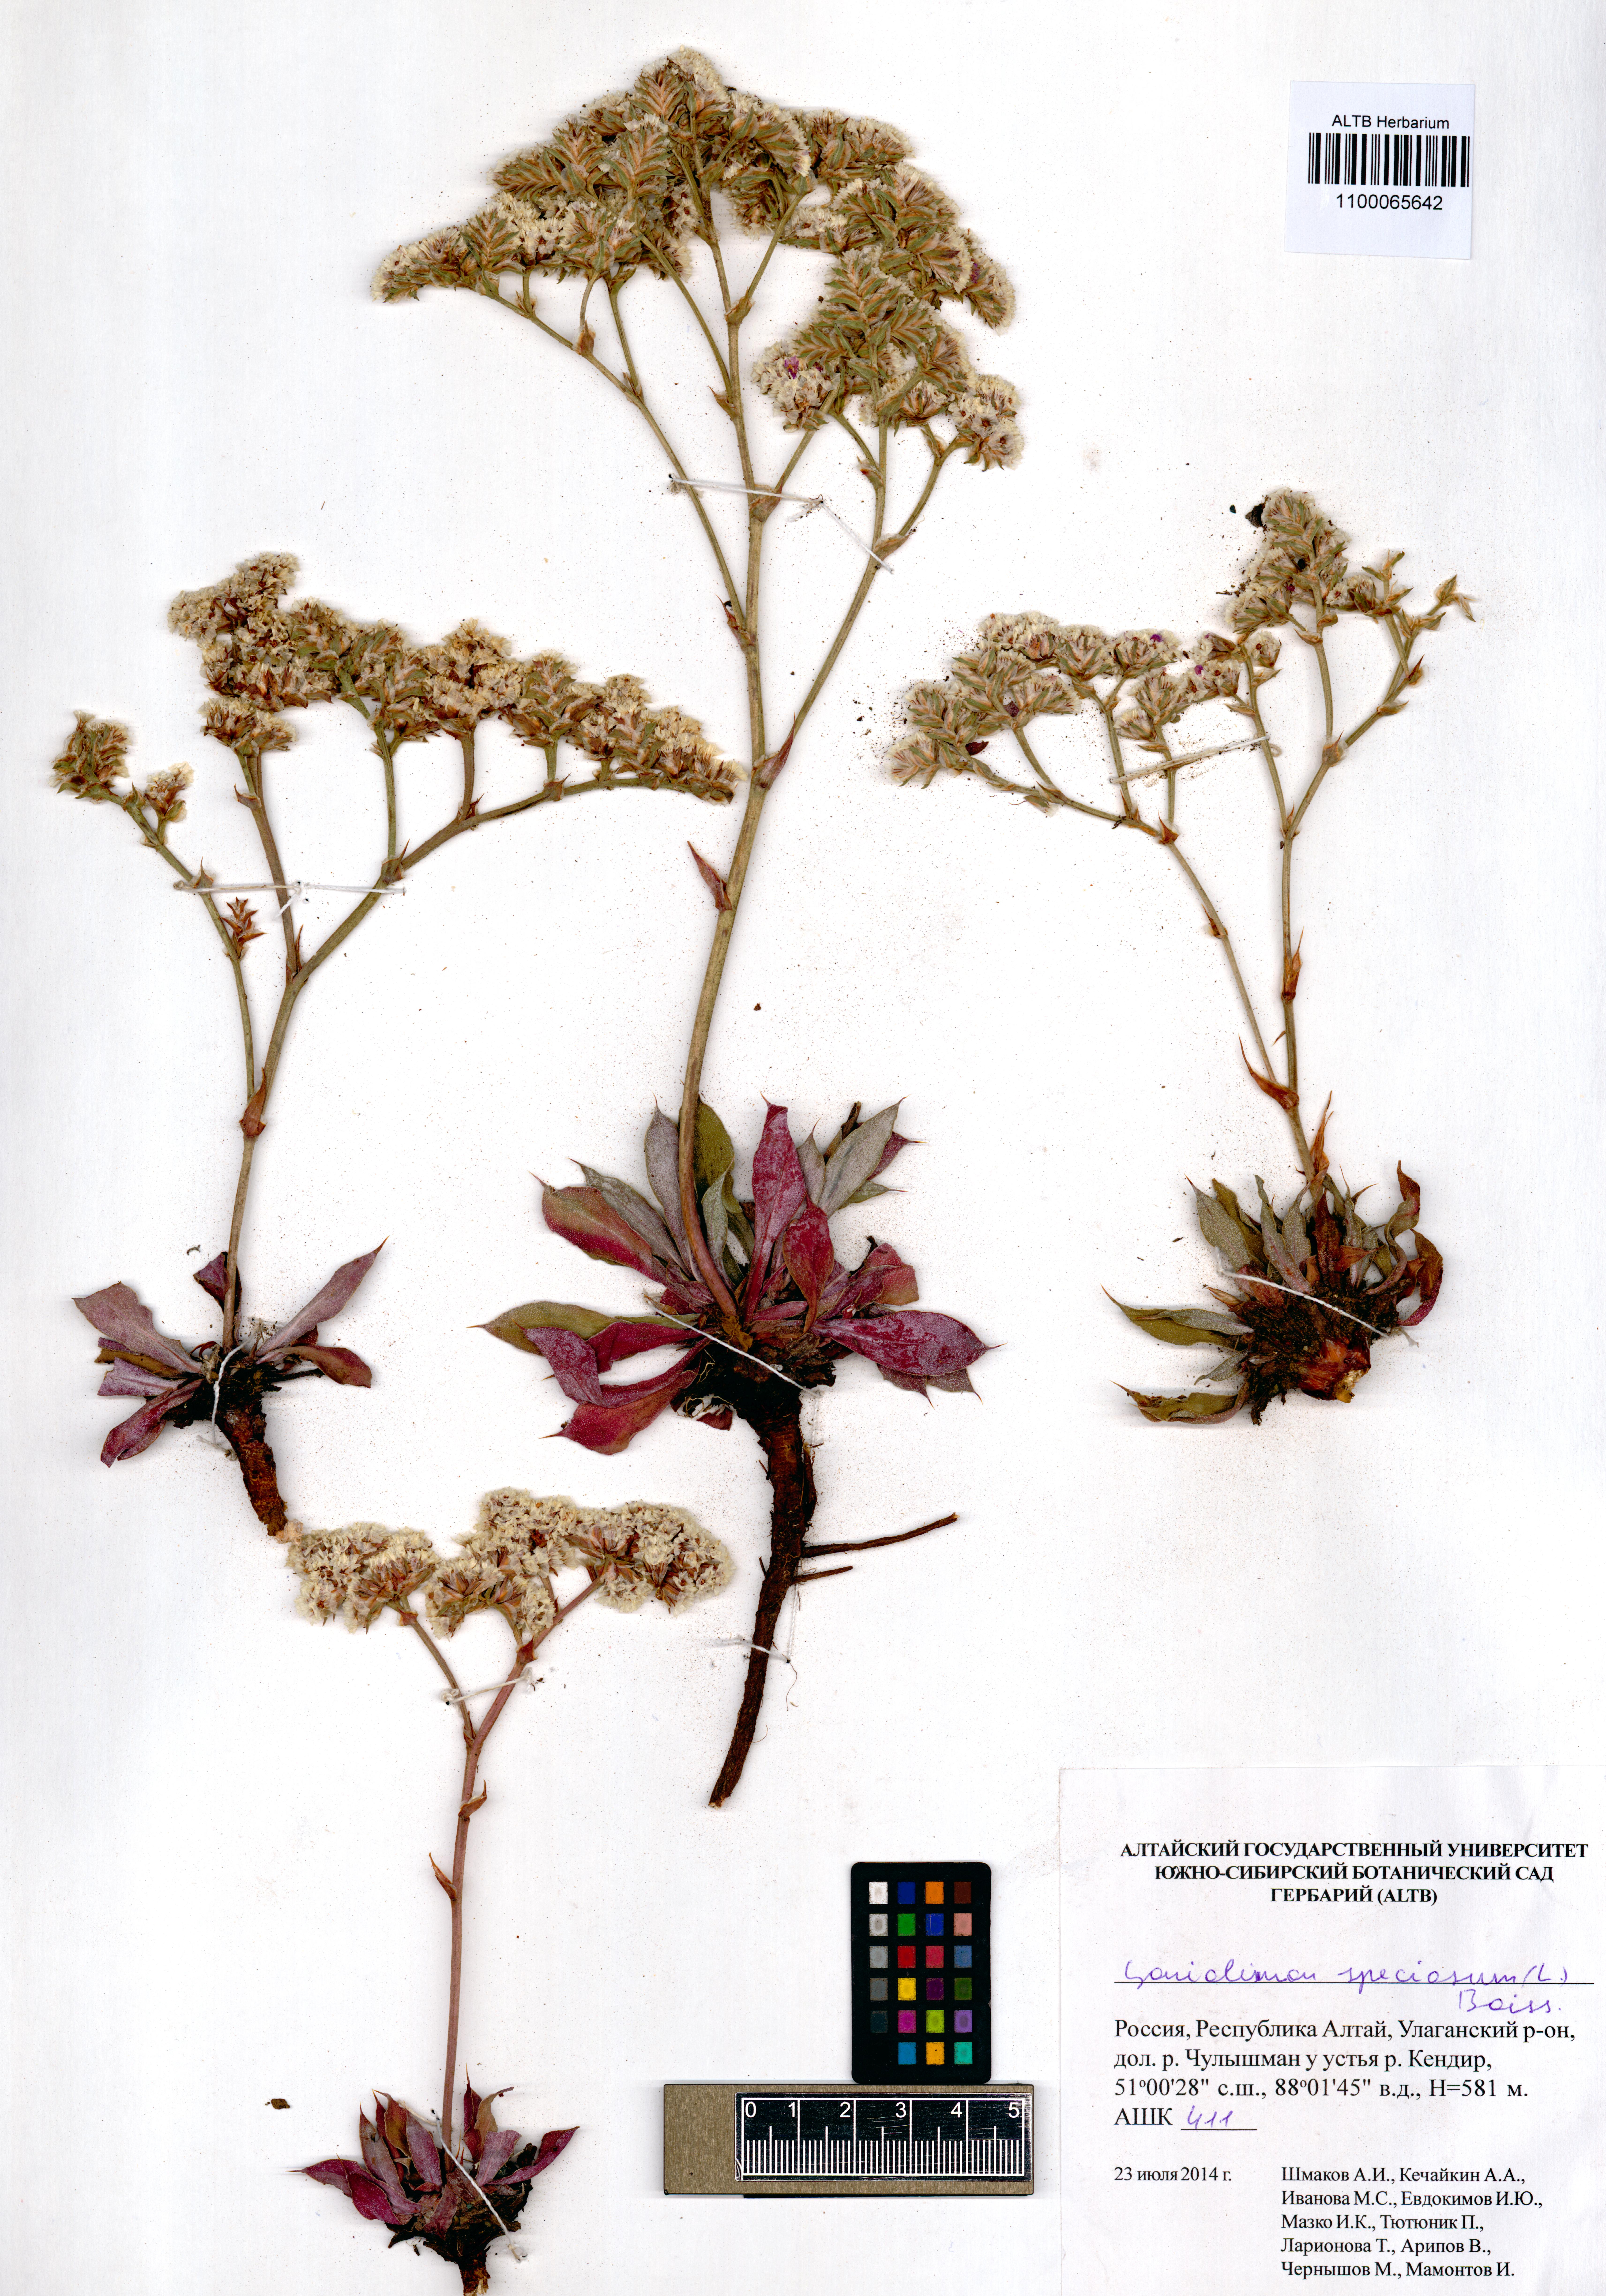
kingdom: Plantae
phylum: Tracheophyta
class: Magnoliopsida
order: Caryophyllales
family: Plumbaginaceae
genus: Goniolimon
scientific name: Goniolimon speciosum
